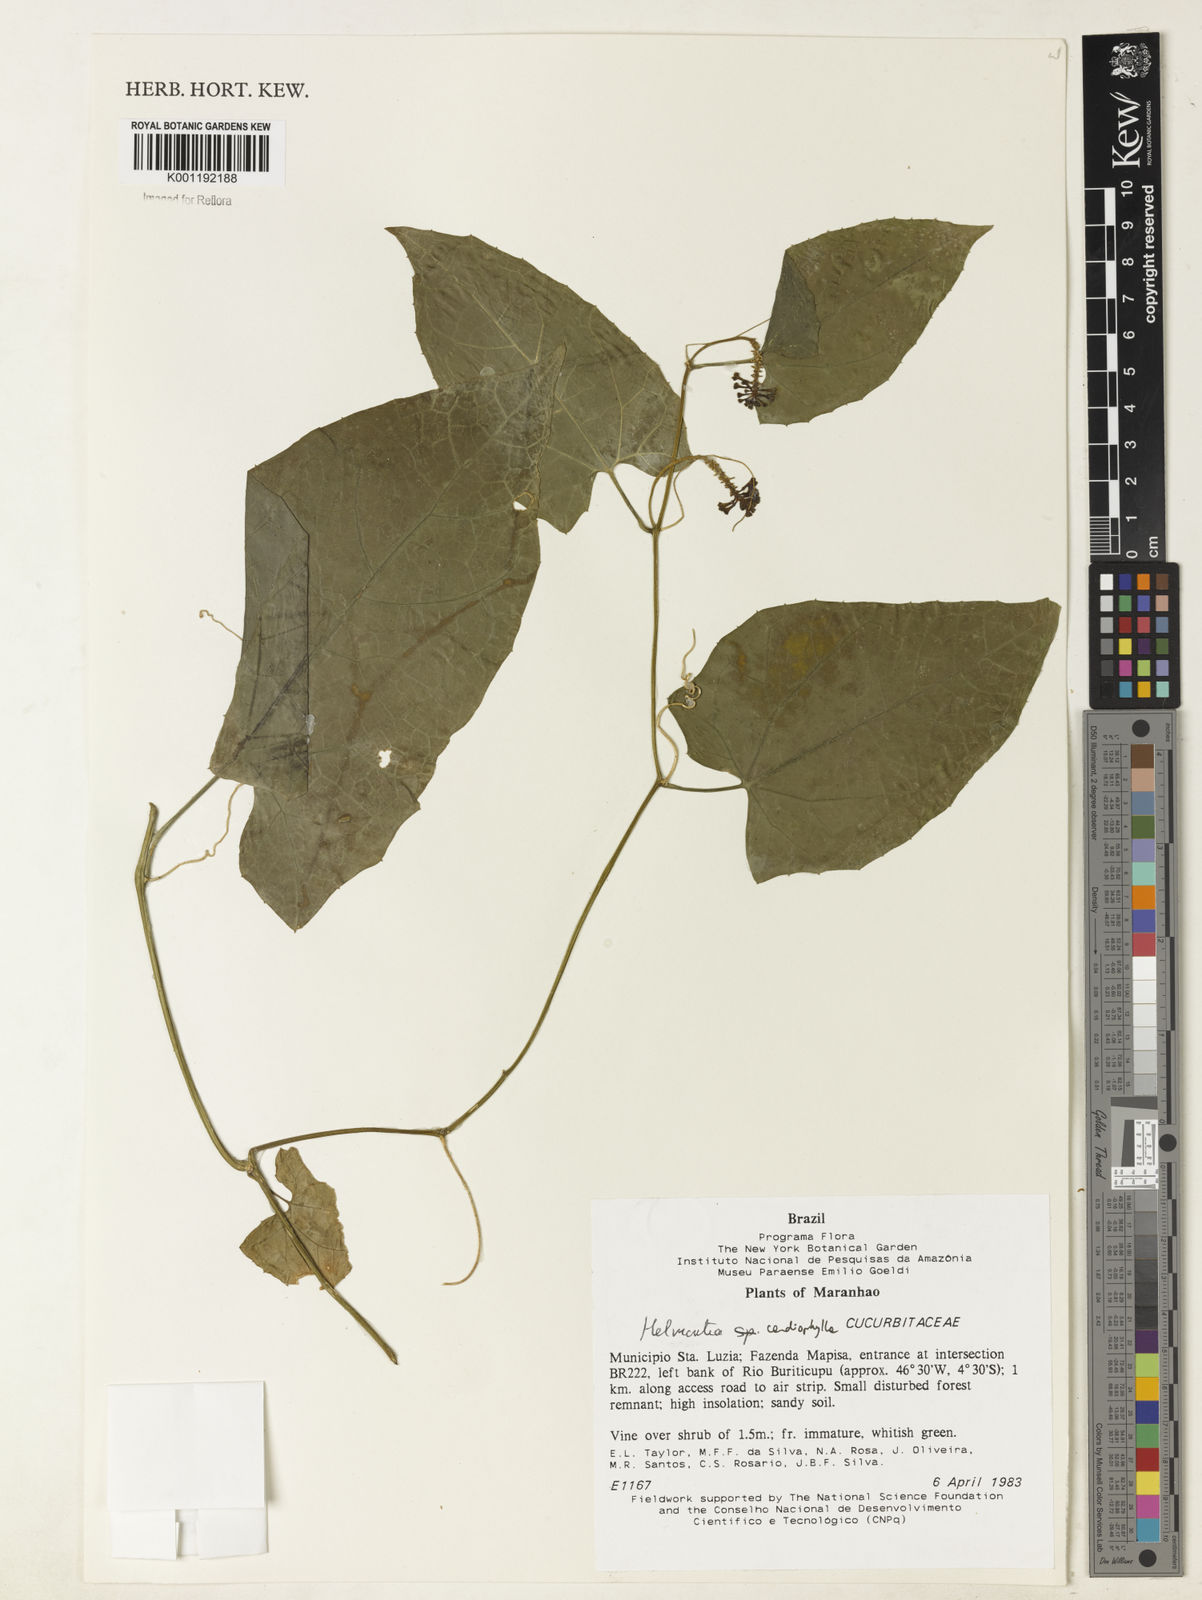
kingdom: Plantae
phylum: Tracheophyta
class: Magnoliopsida
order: Cucurbitales
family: Cucurbitaceae
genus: Helmontia
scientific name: Helmontia cardiophylla
